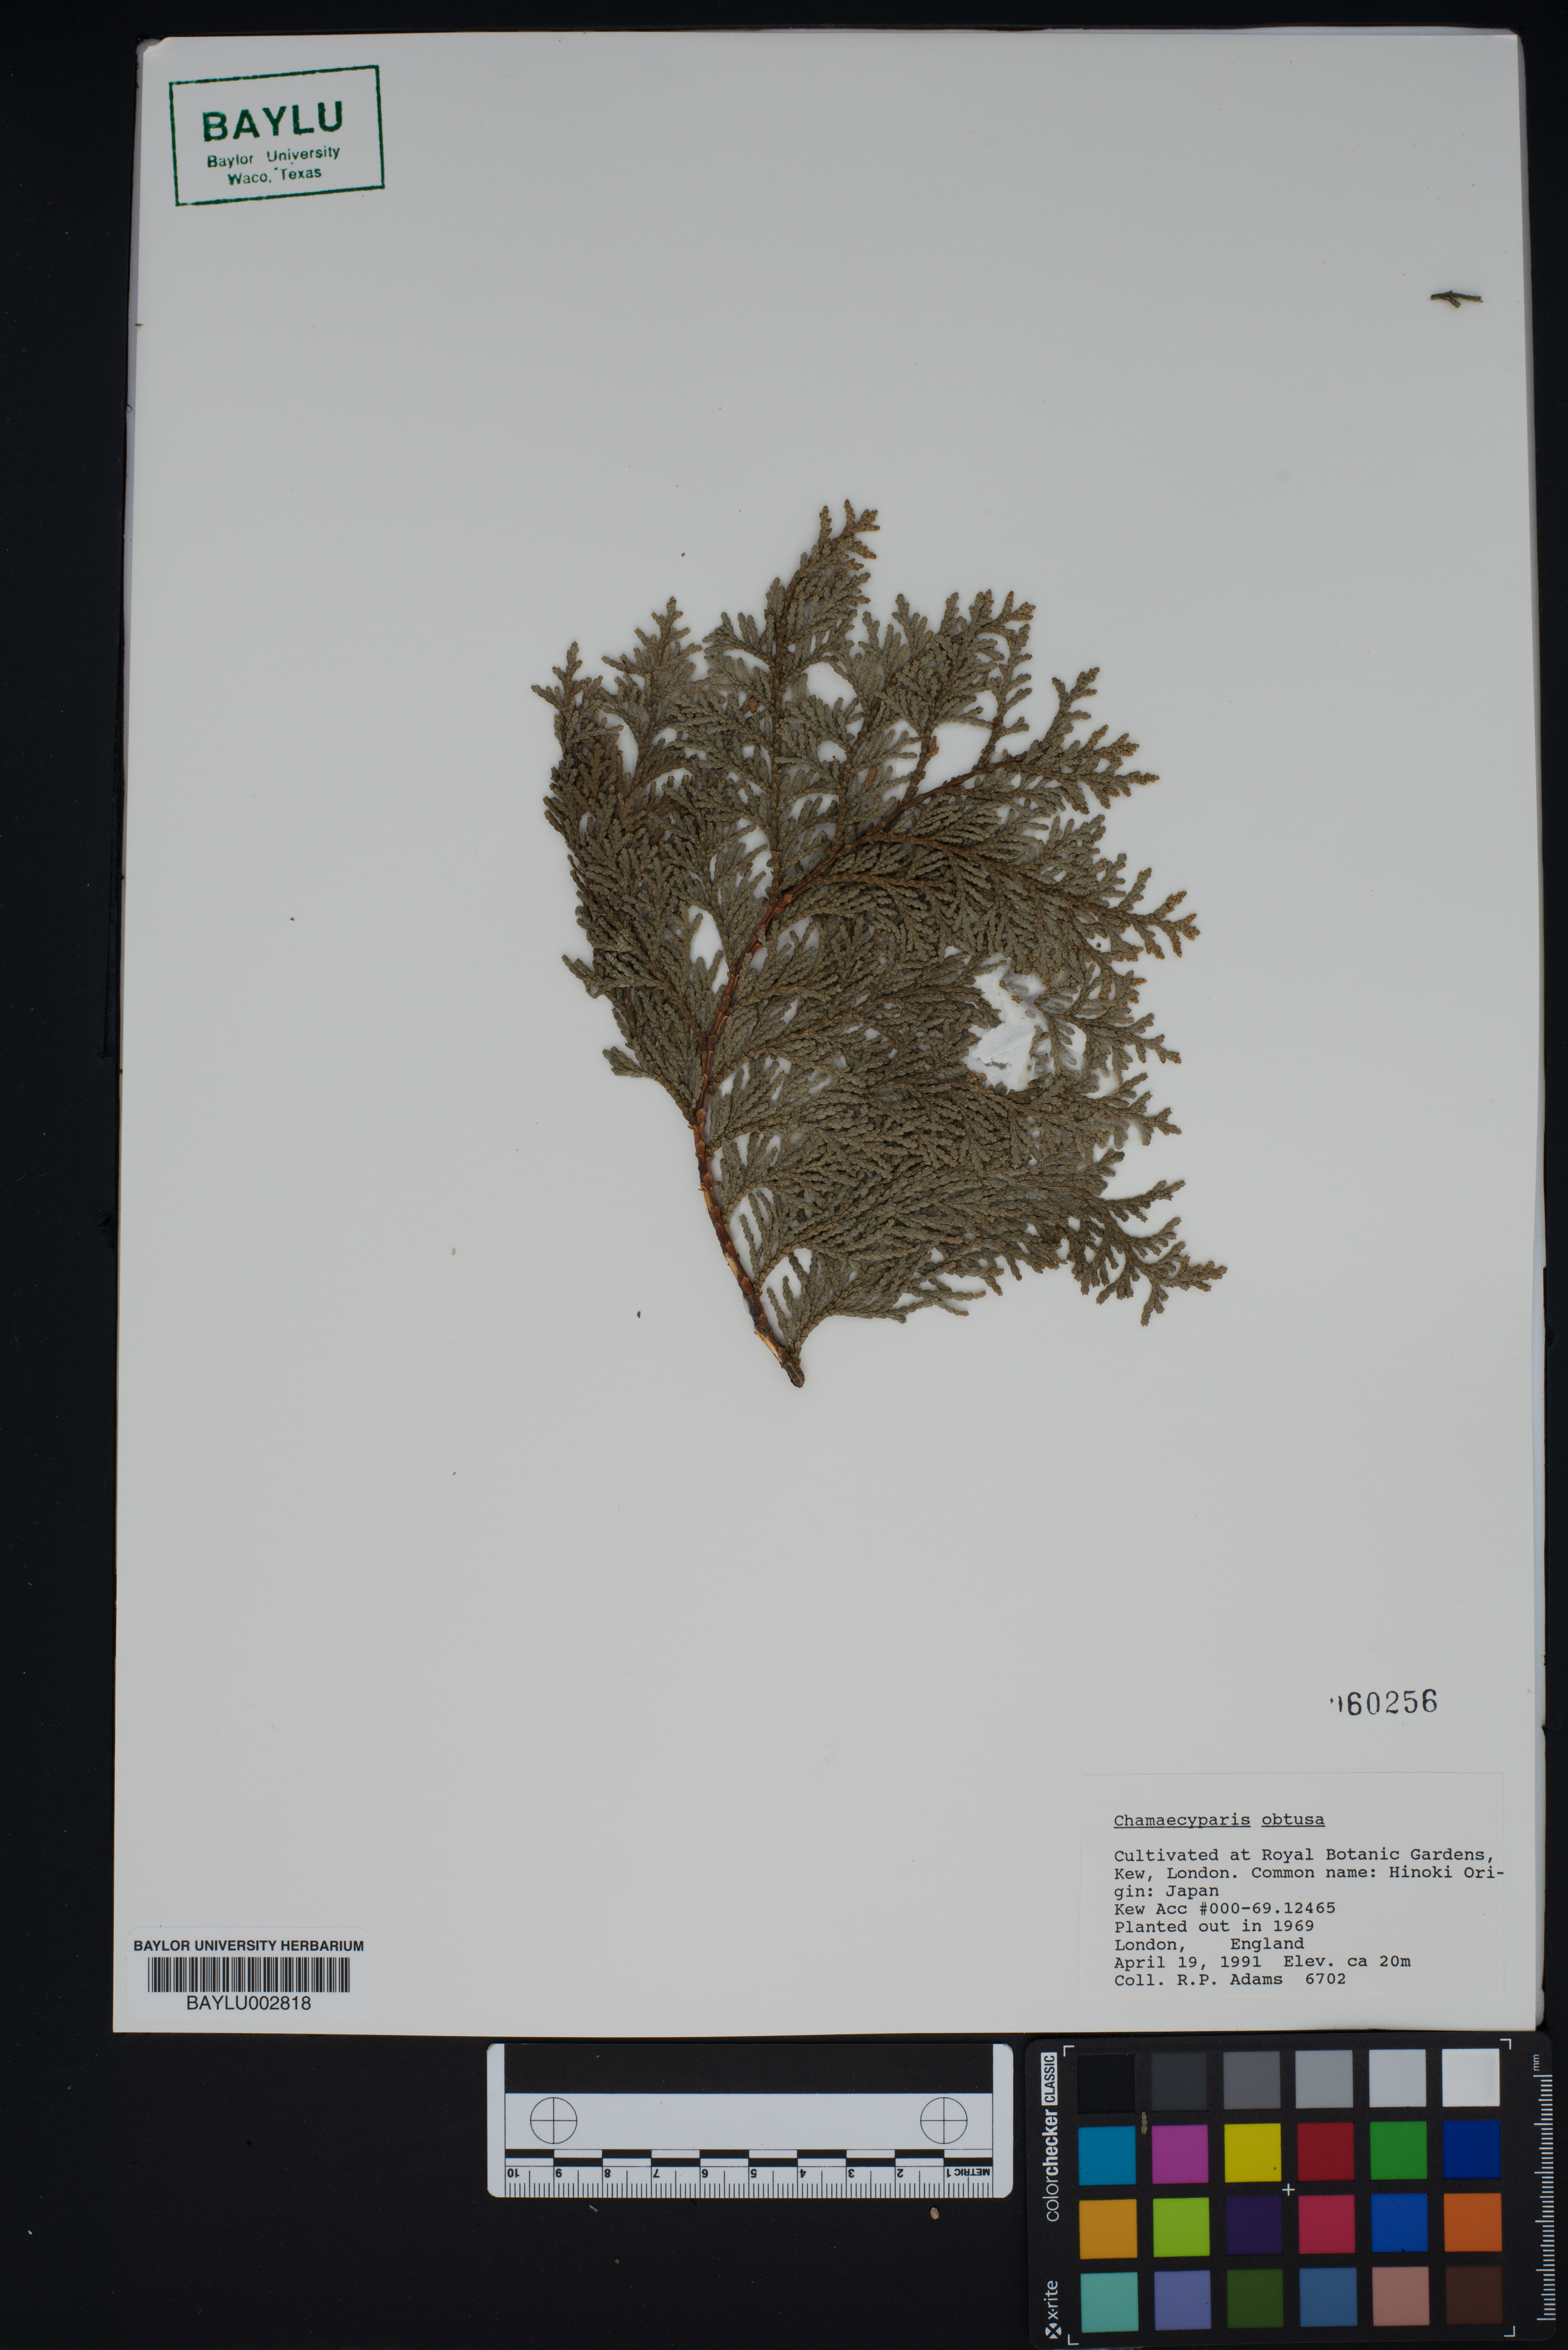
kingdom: Plantae
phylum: Tracheophyta
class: Pinopsida
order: Pinales
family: Cupressaceae
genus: Chamaecyparis
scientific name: Chamaecyparis obtusa
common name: Hinoki false cypress
